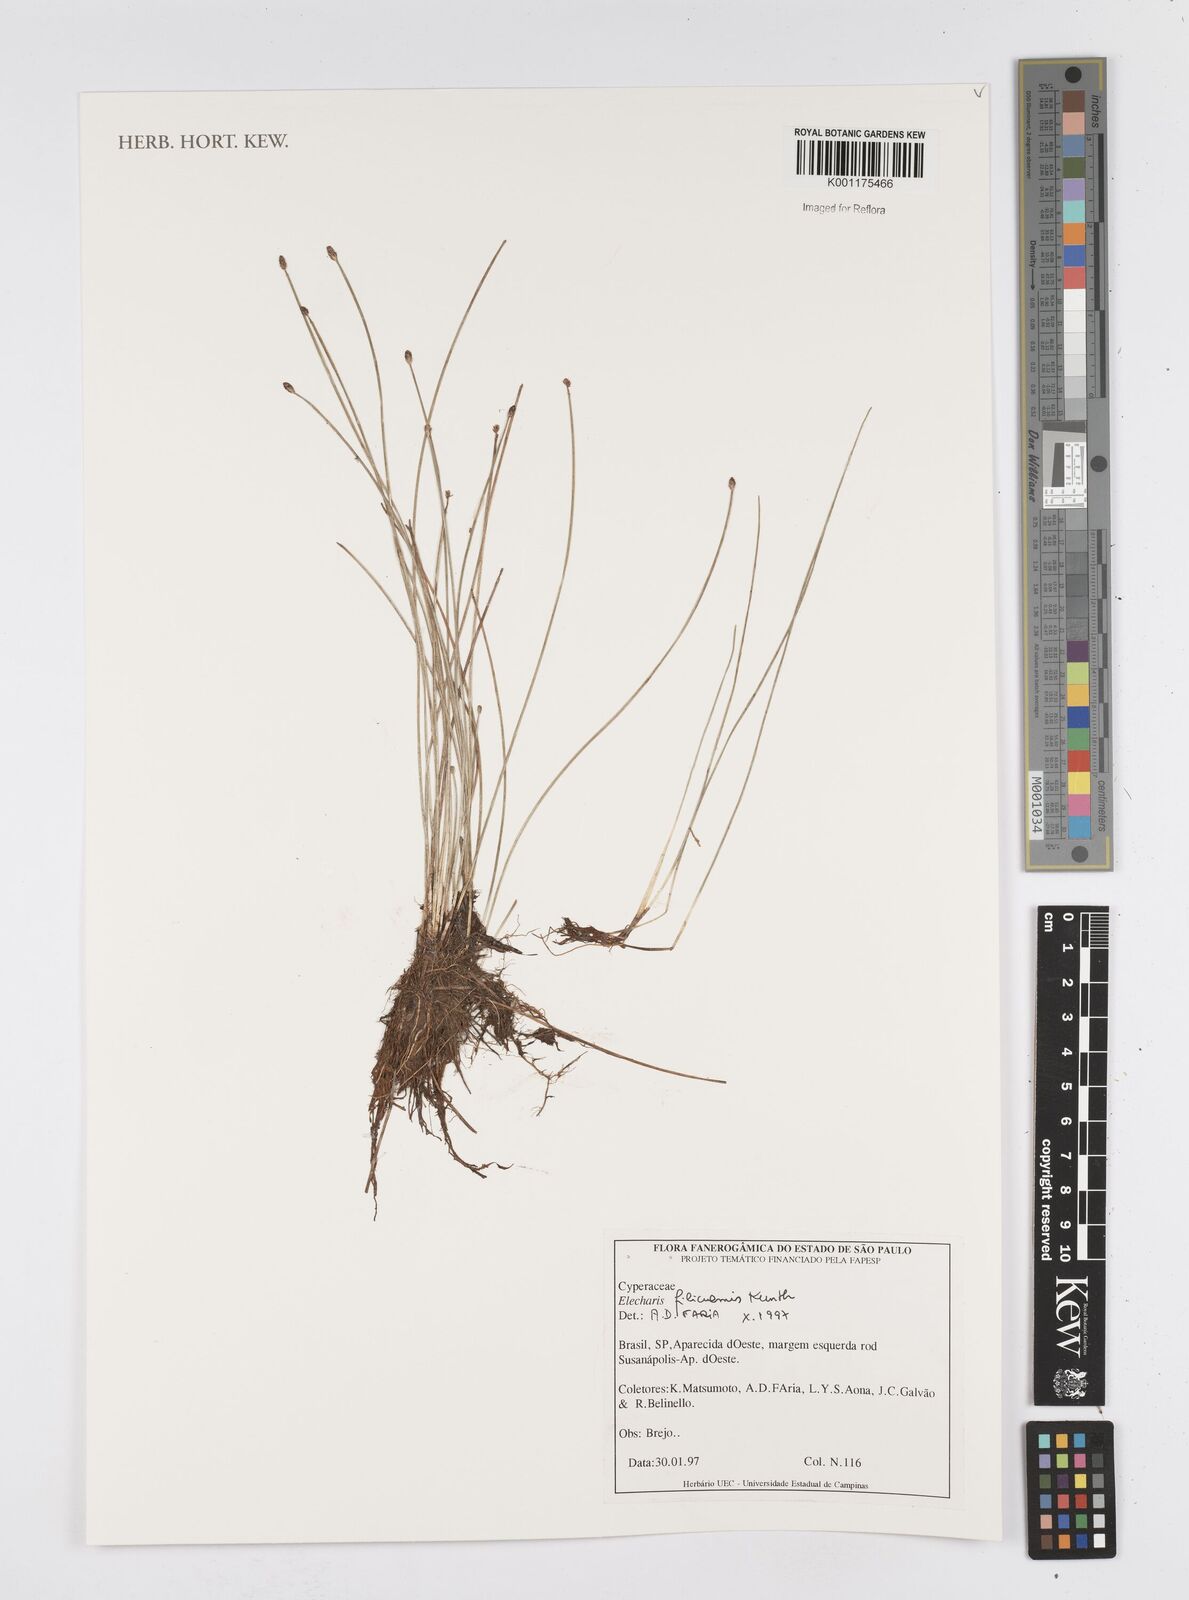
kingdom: Plantae
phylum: Tracheophyta
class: Liliopsida
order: Poales
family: Cyperaceae
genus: Eleocharis
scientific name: Eleocharis filiculmis
